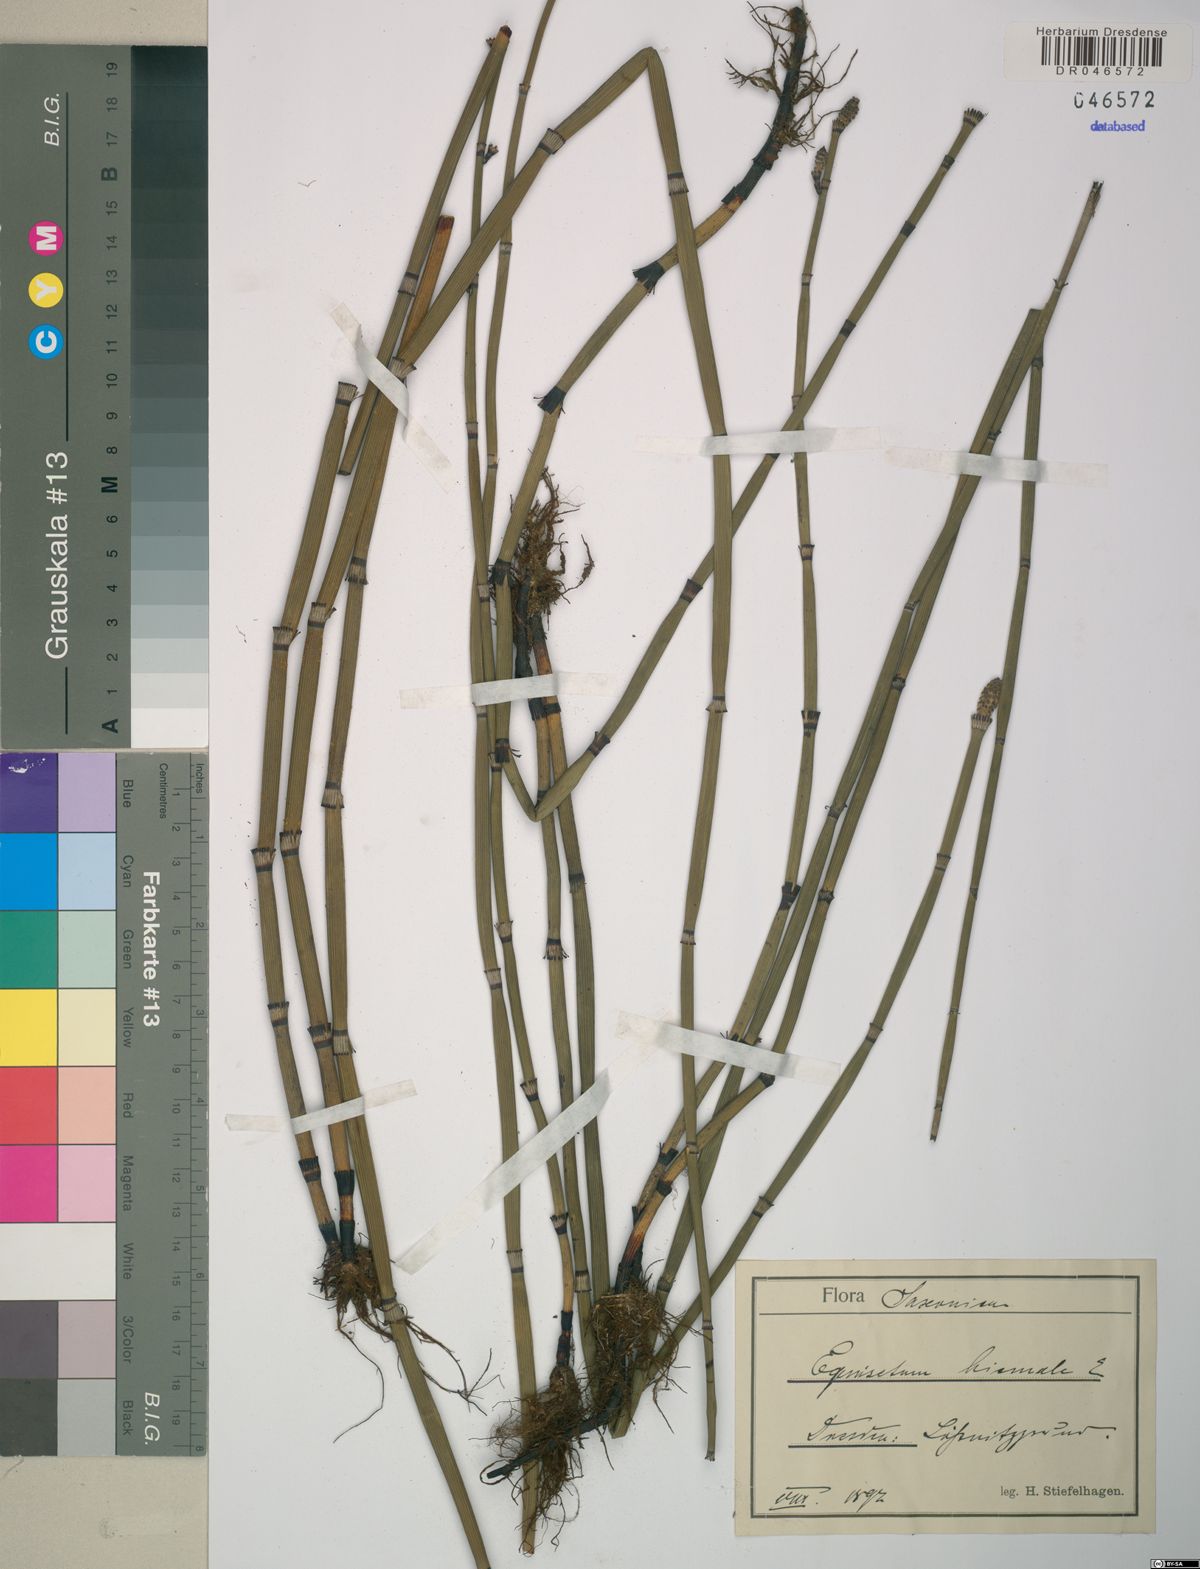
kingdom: Plantae
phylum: Tracheophyta
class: Polypodiopsida
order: Equisetales
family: Equisetaceae
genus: Equisetum
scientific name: Equisetum hyemale
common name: Rough horsetail
